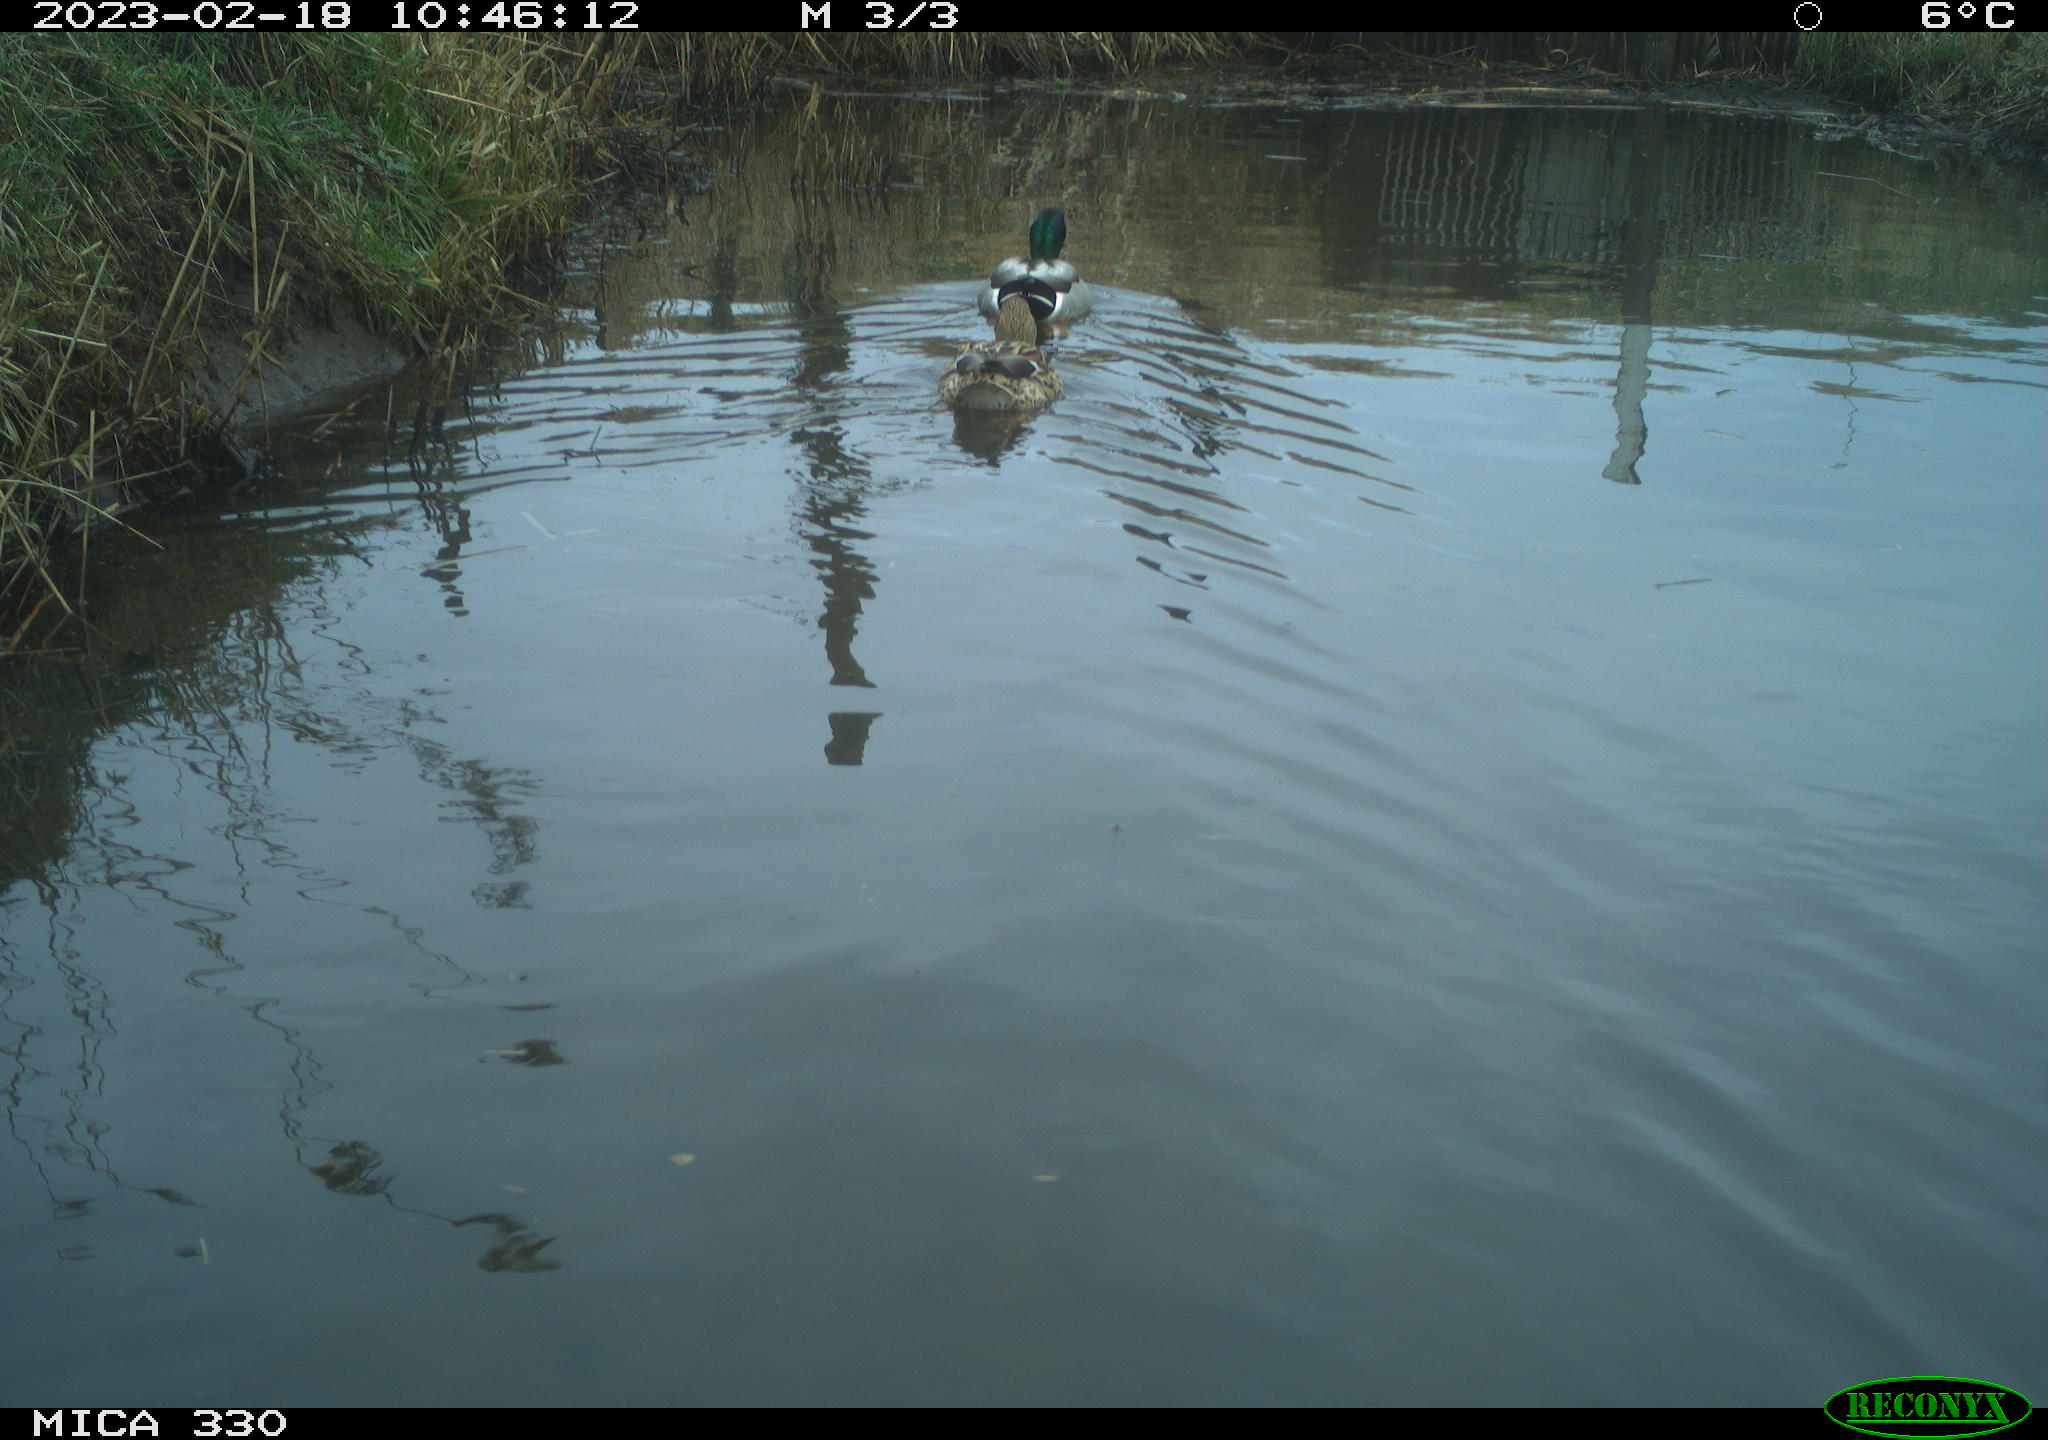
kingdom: Animalia
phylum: Chordata
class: Aves
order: Anseriformes
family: Anatidae
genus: Anas
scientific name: Anas
